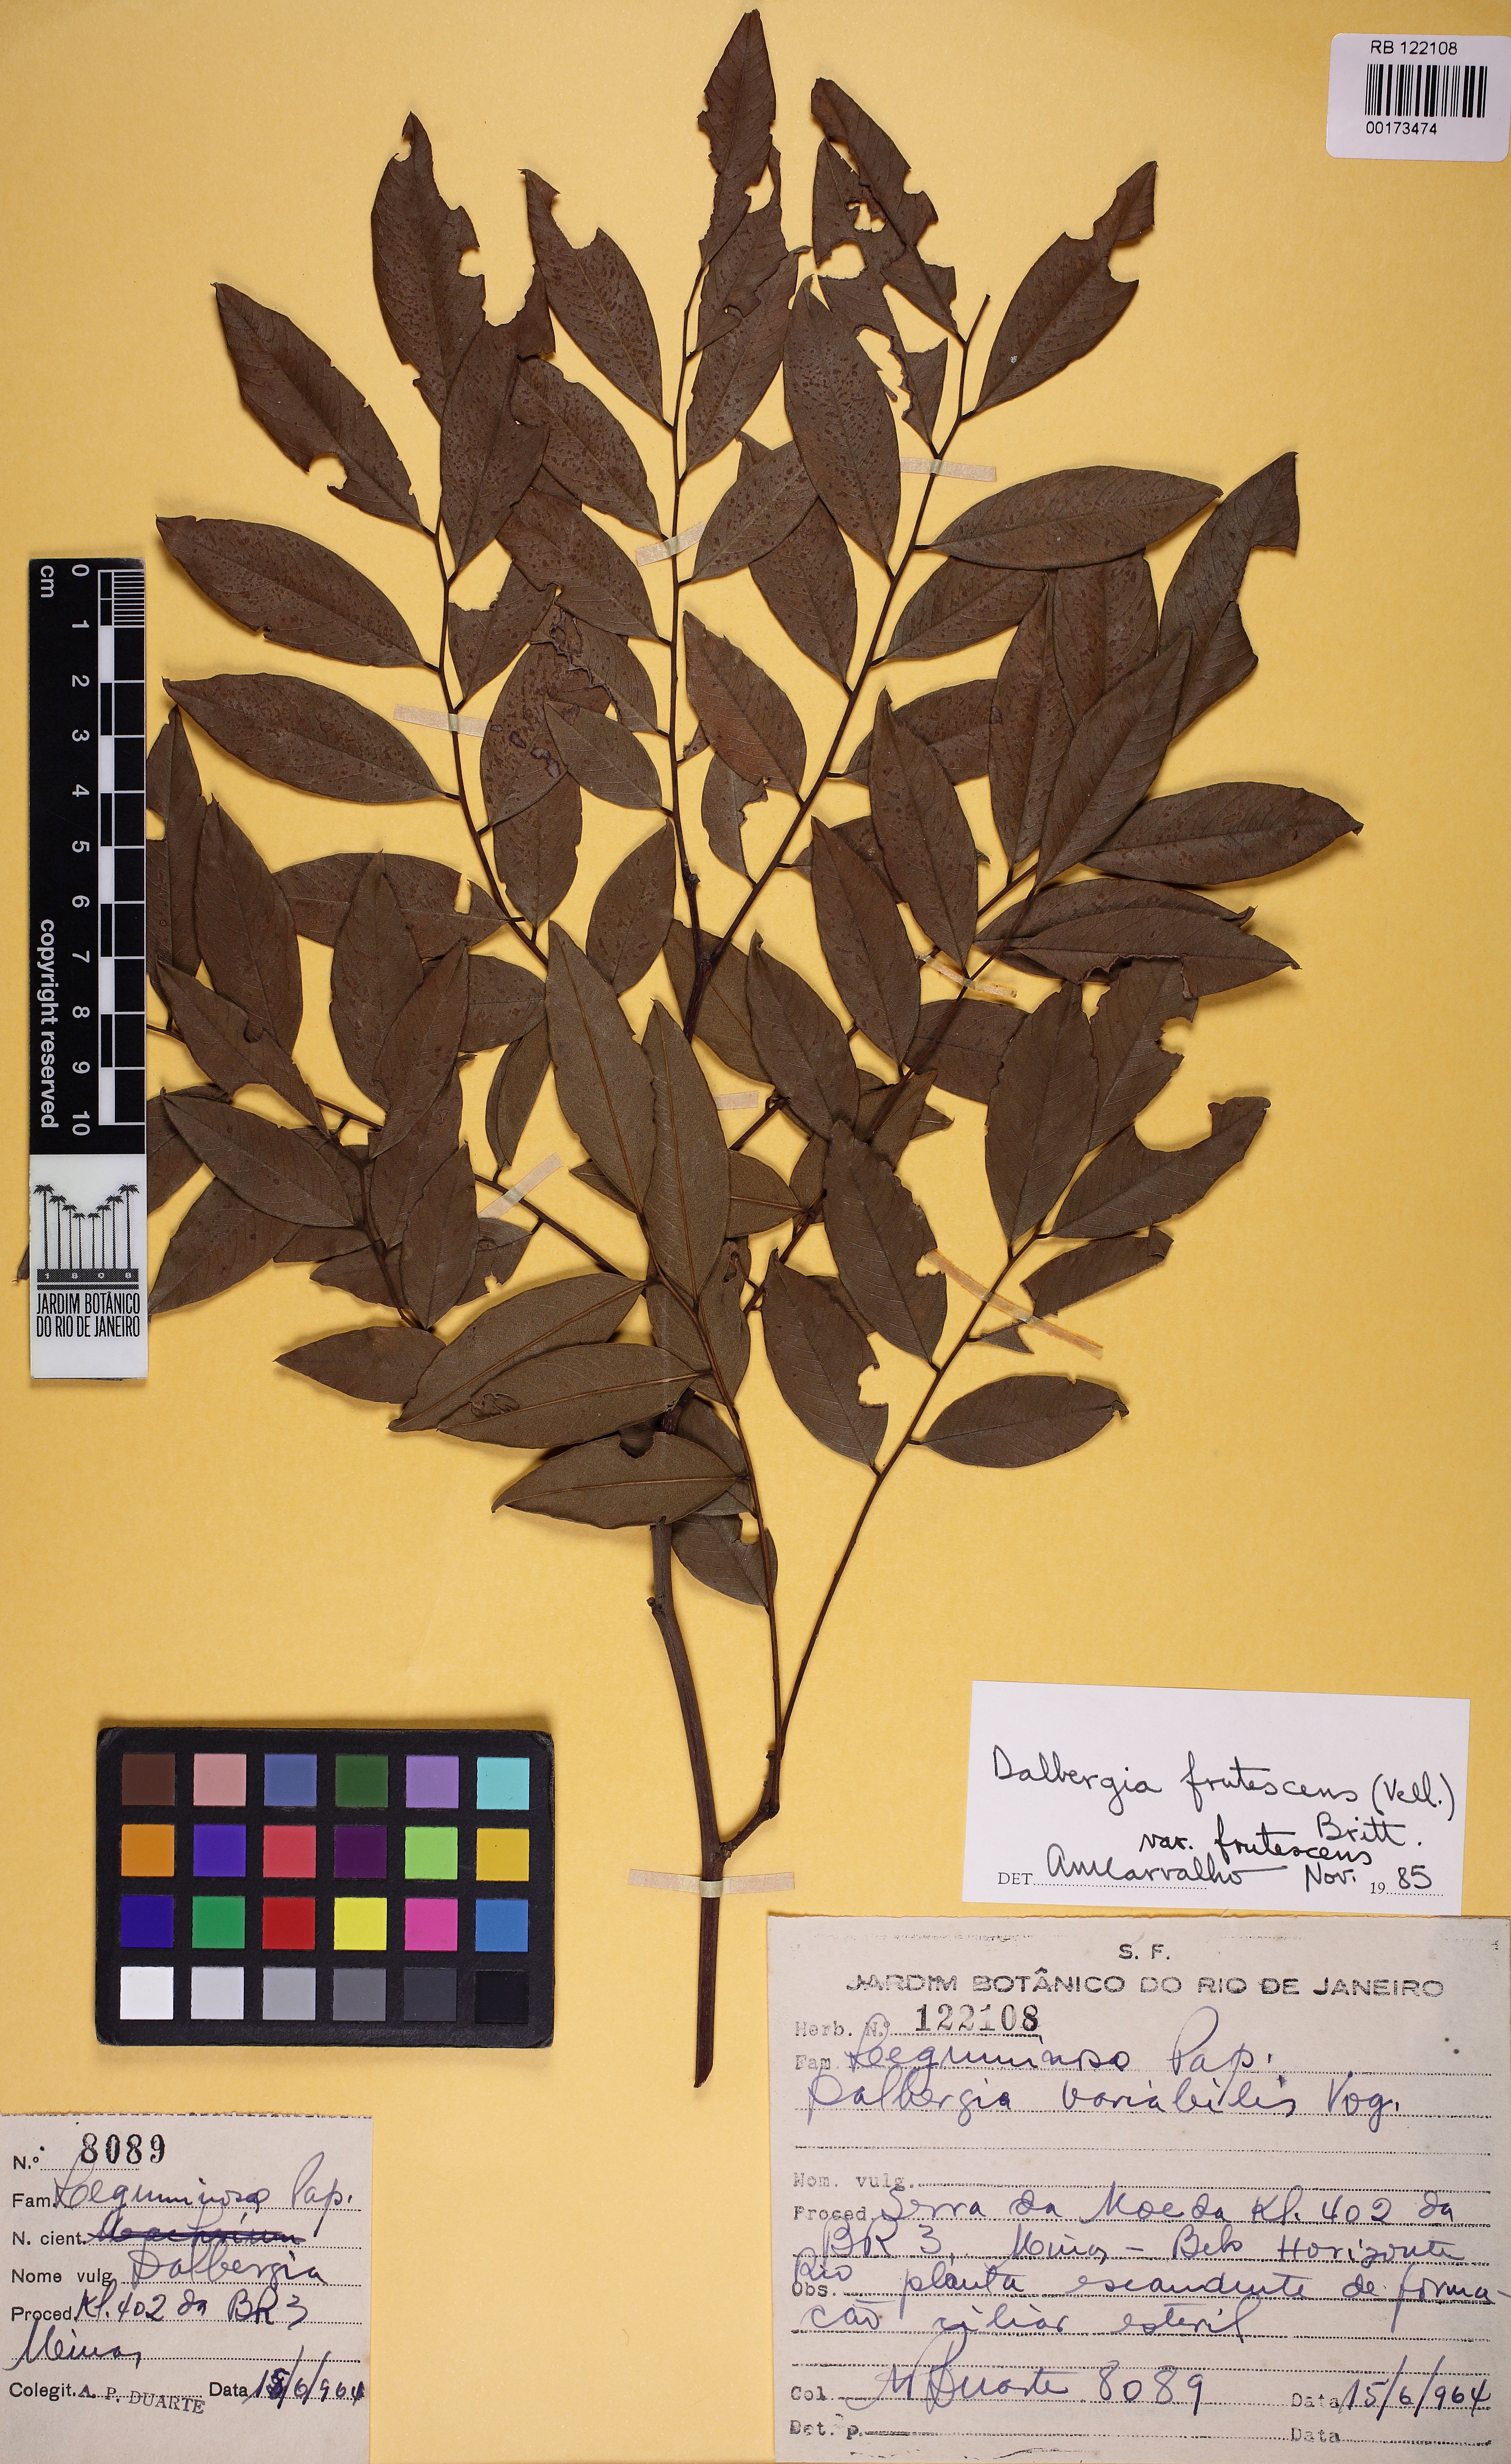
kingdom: Plantae
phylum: Tracheophyta
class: Magnoliopsida
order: Fabales
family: Fabaceae
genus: Dalbergia
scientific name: Dalbergia frutescens
